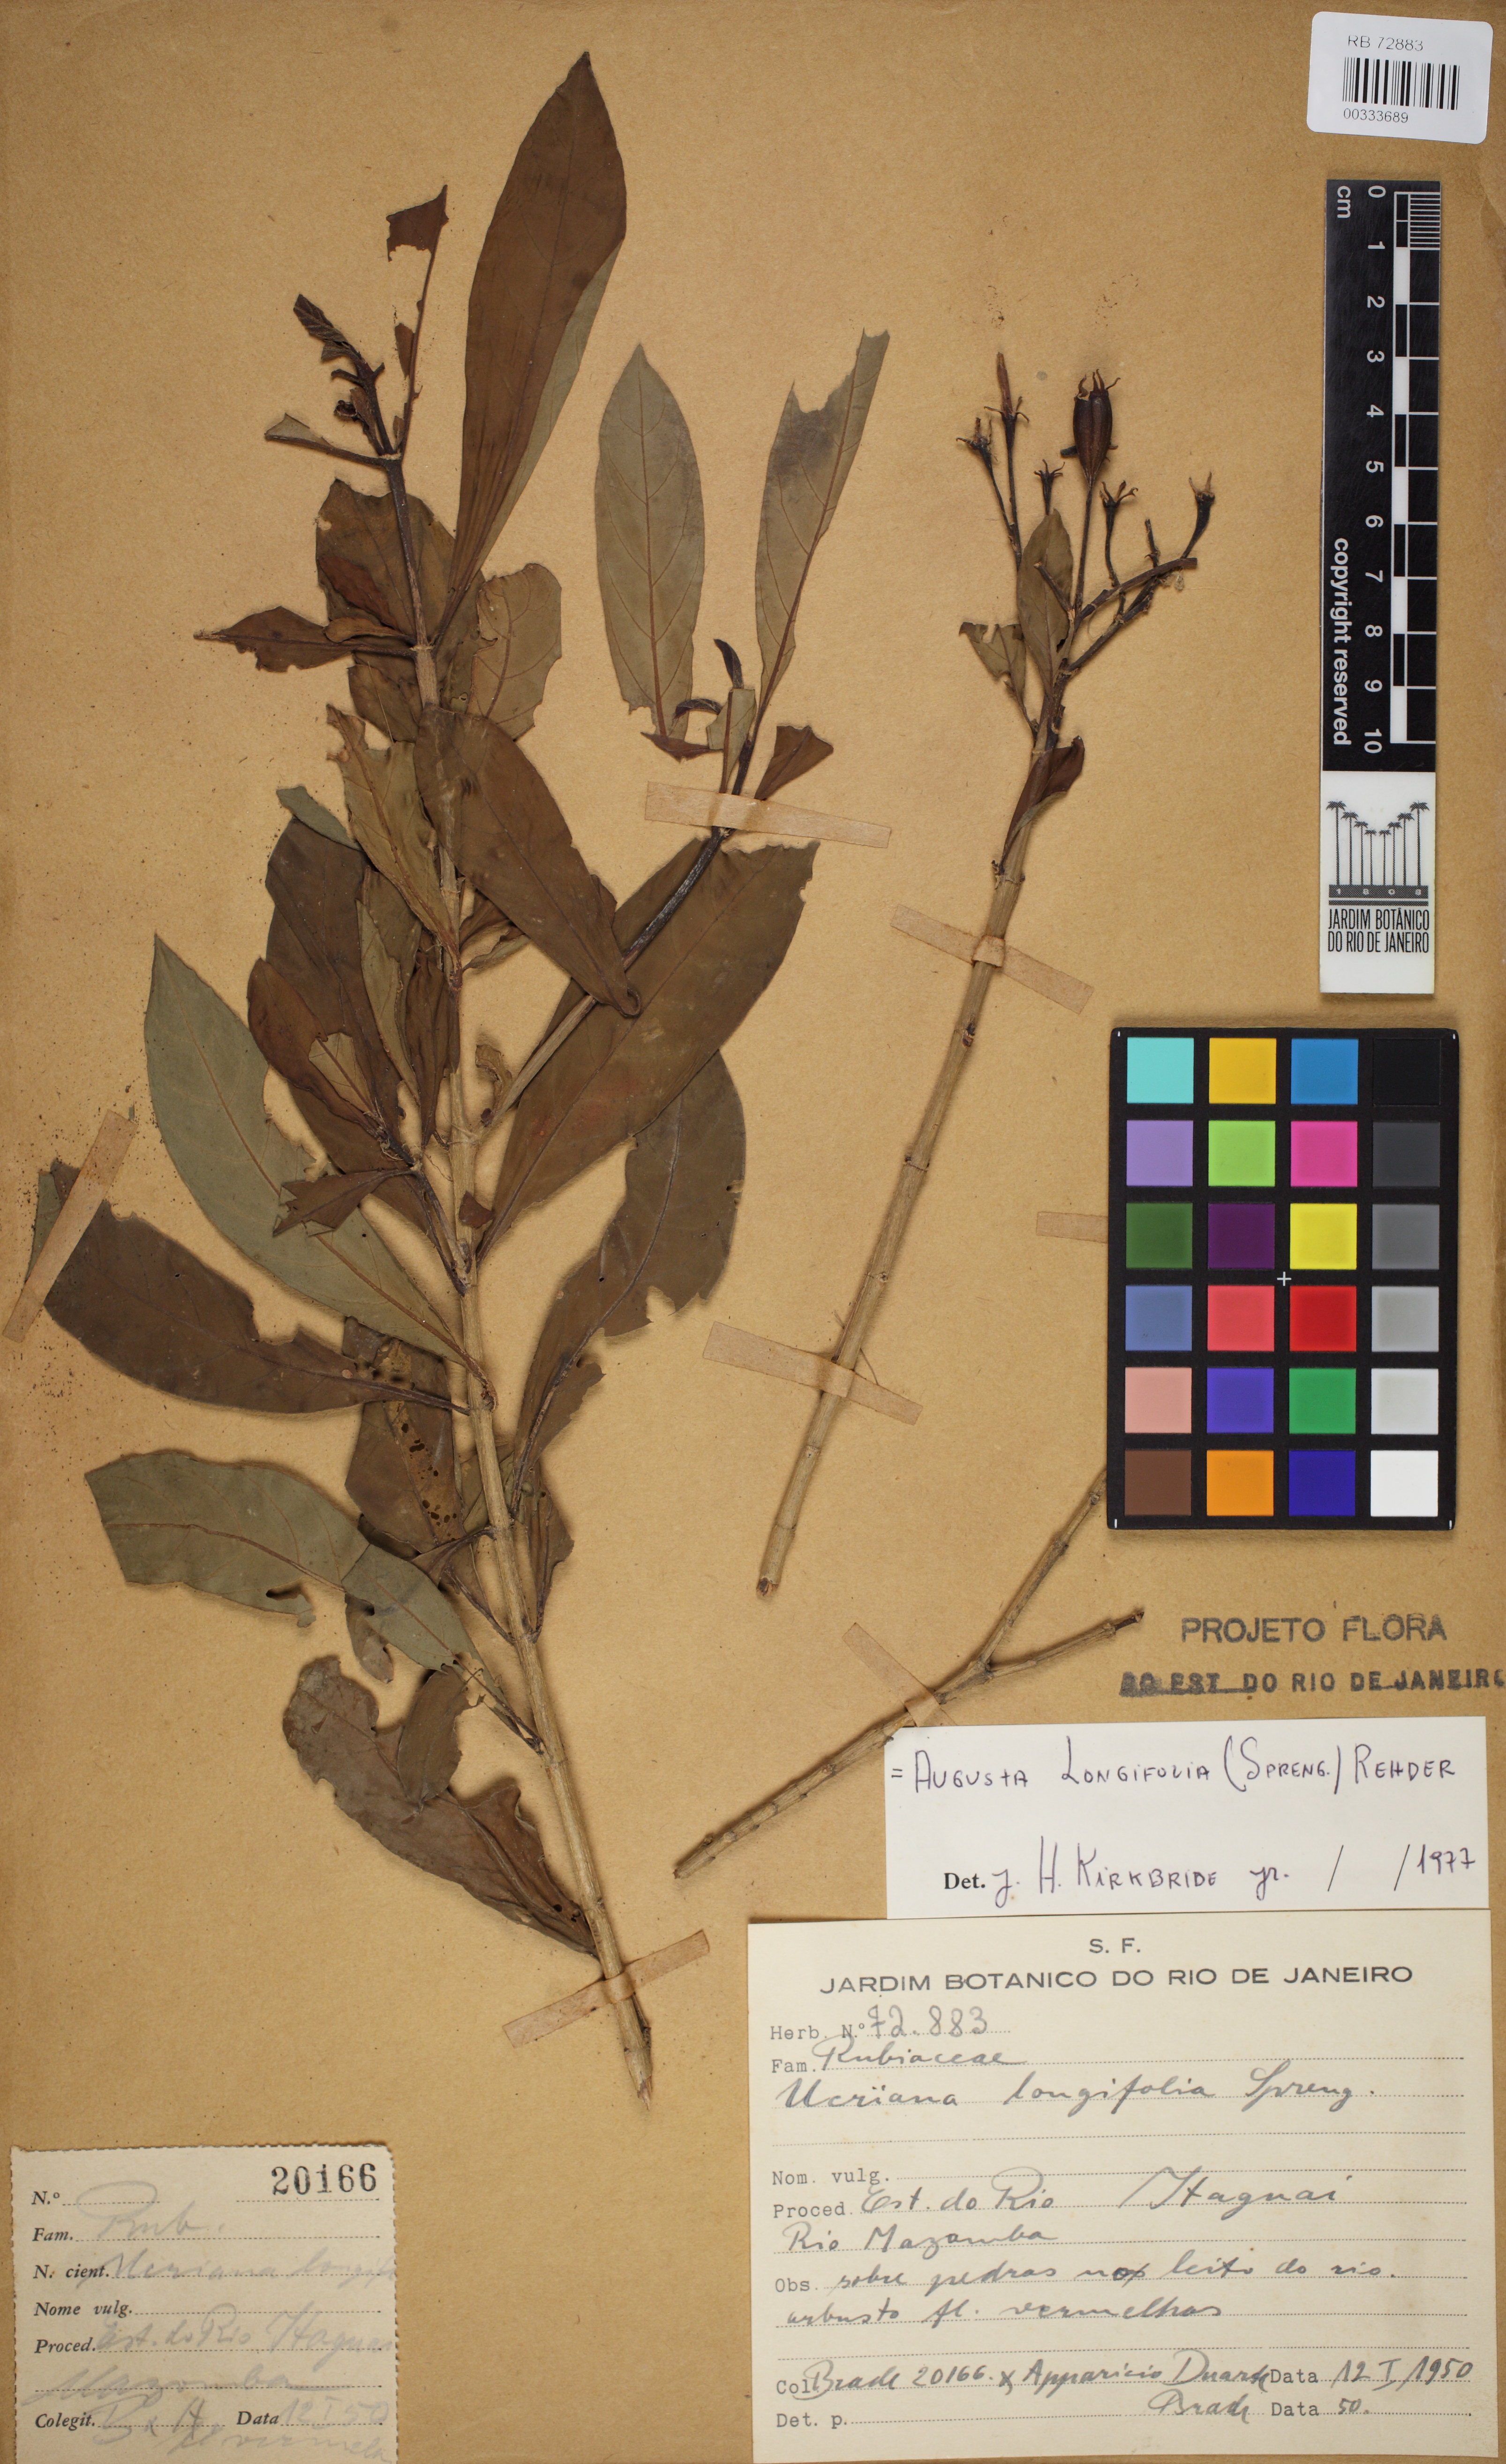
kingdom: Plantae
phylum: Tracheophyta
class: Magnoliopsida
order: Gentianales
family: Rubiaceae
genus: Augusta
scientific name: Augusta longifolia
